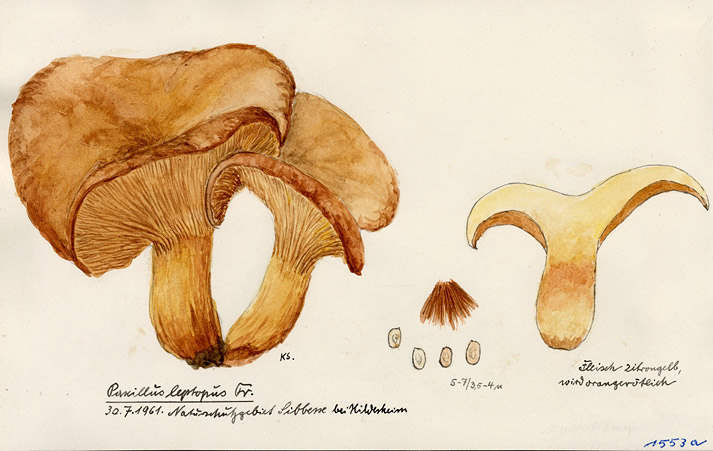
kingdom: Fungi
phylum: Basidiomycota
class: Agaricomycetes
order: Boletales
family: Paxillaceae
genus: Paxillus
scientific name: Paxillus rubicundulus
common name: Alder rollrim
